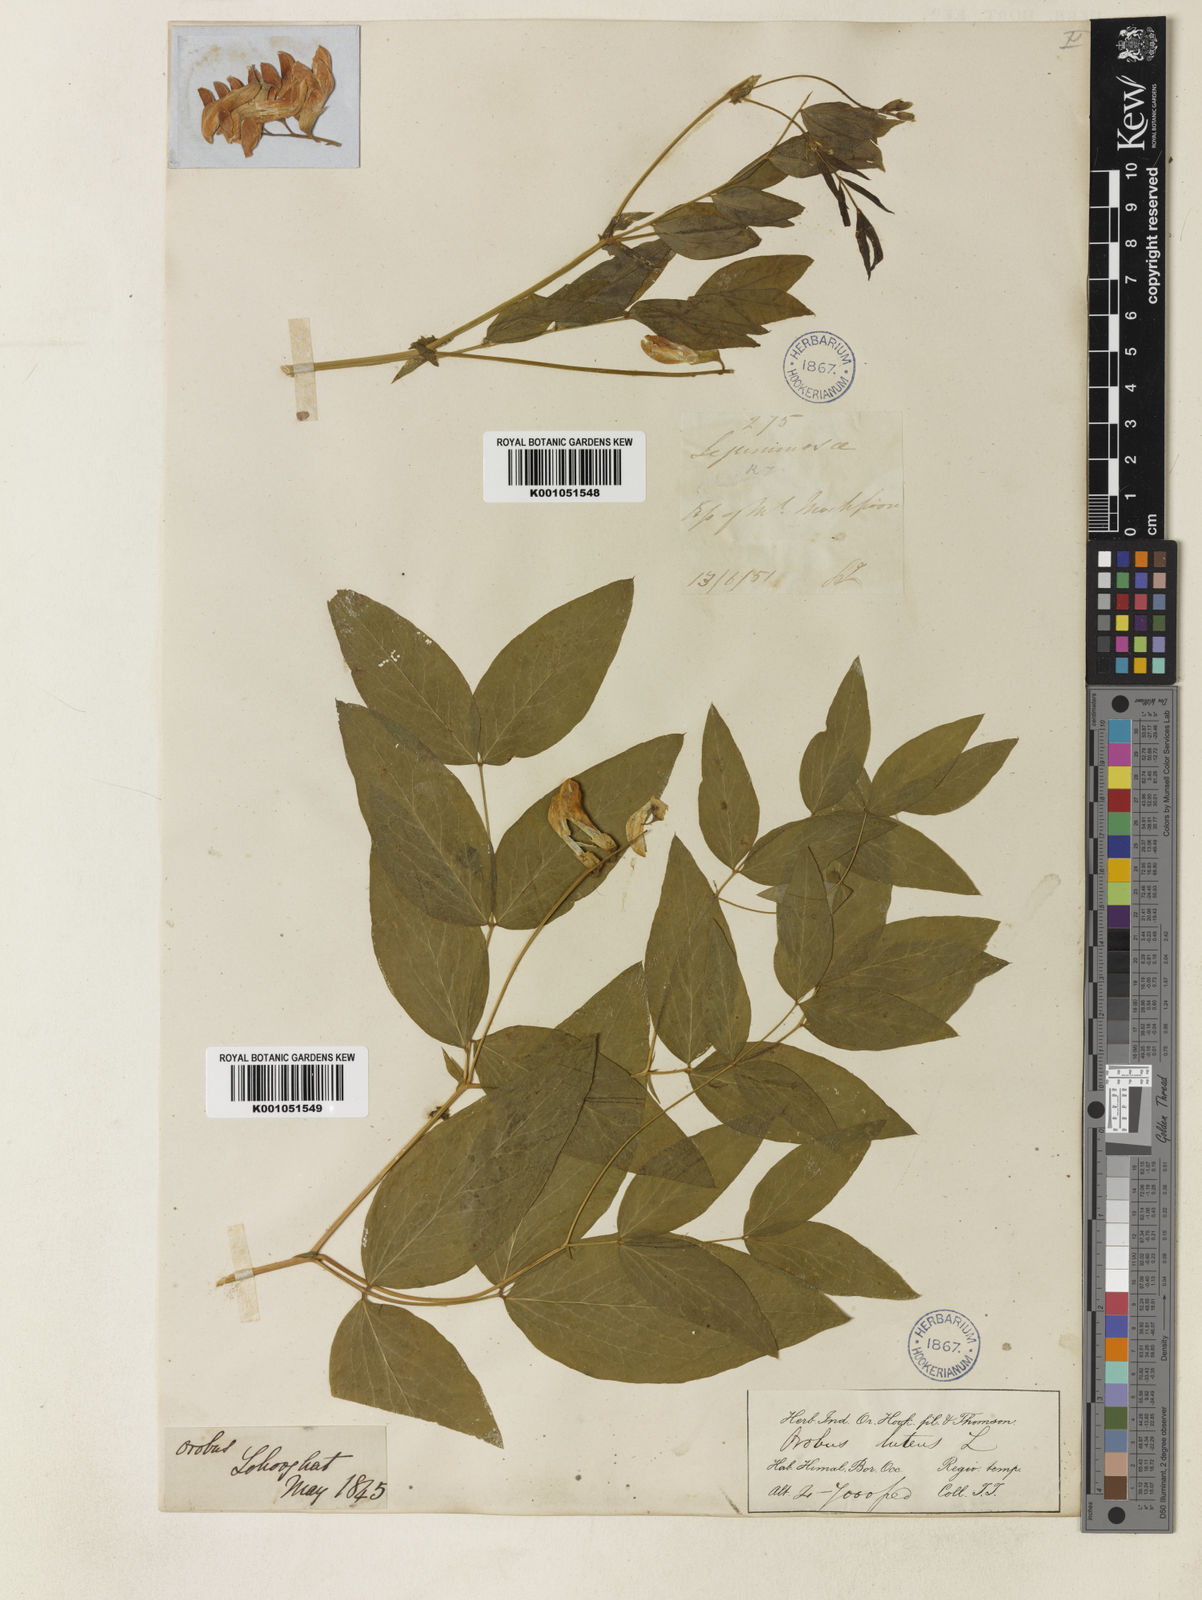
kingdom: Plantae
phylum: Tracheophyta
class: Magnoliopsida
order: Fabales
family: Fabaceae
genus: Lathyrus
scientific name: Lathyrus
